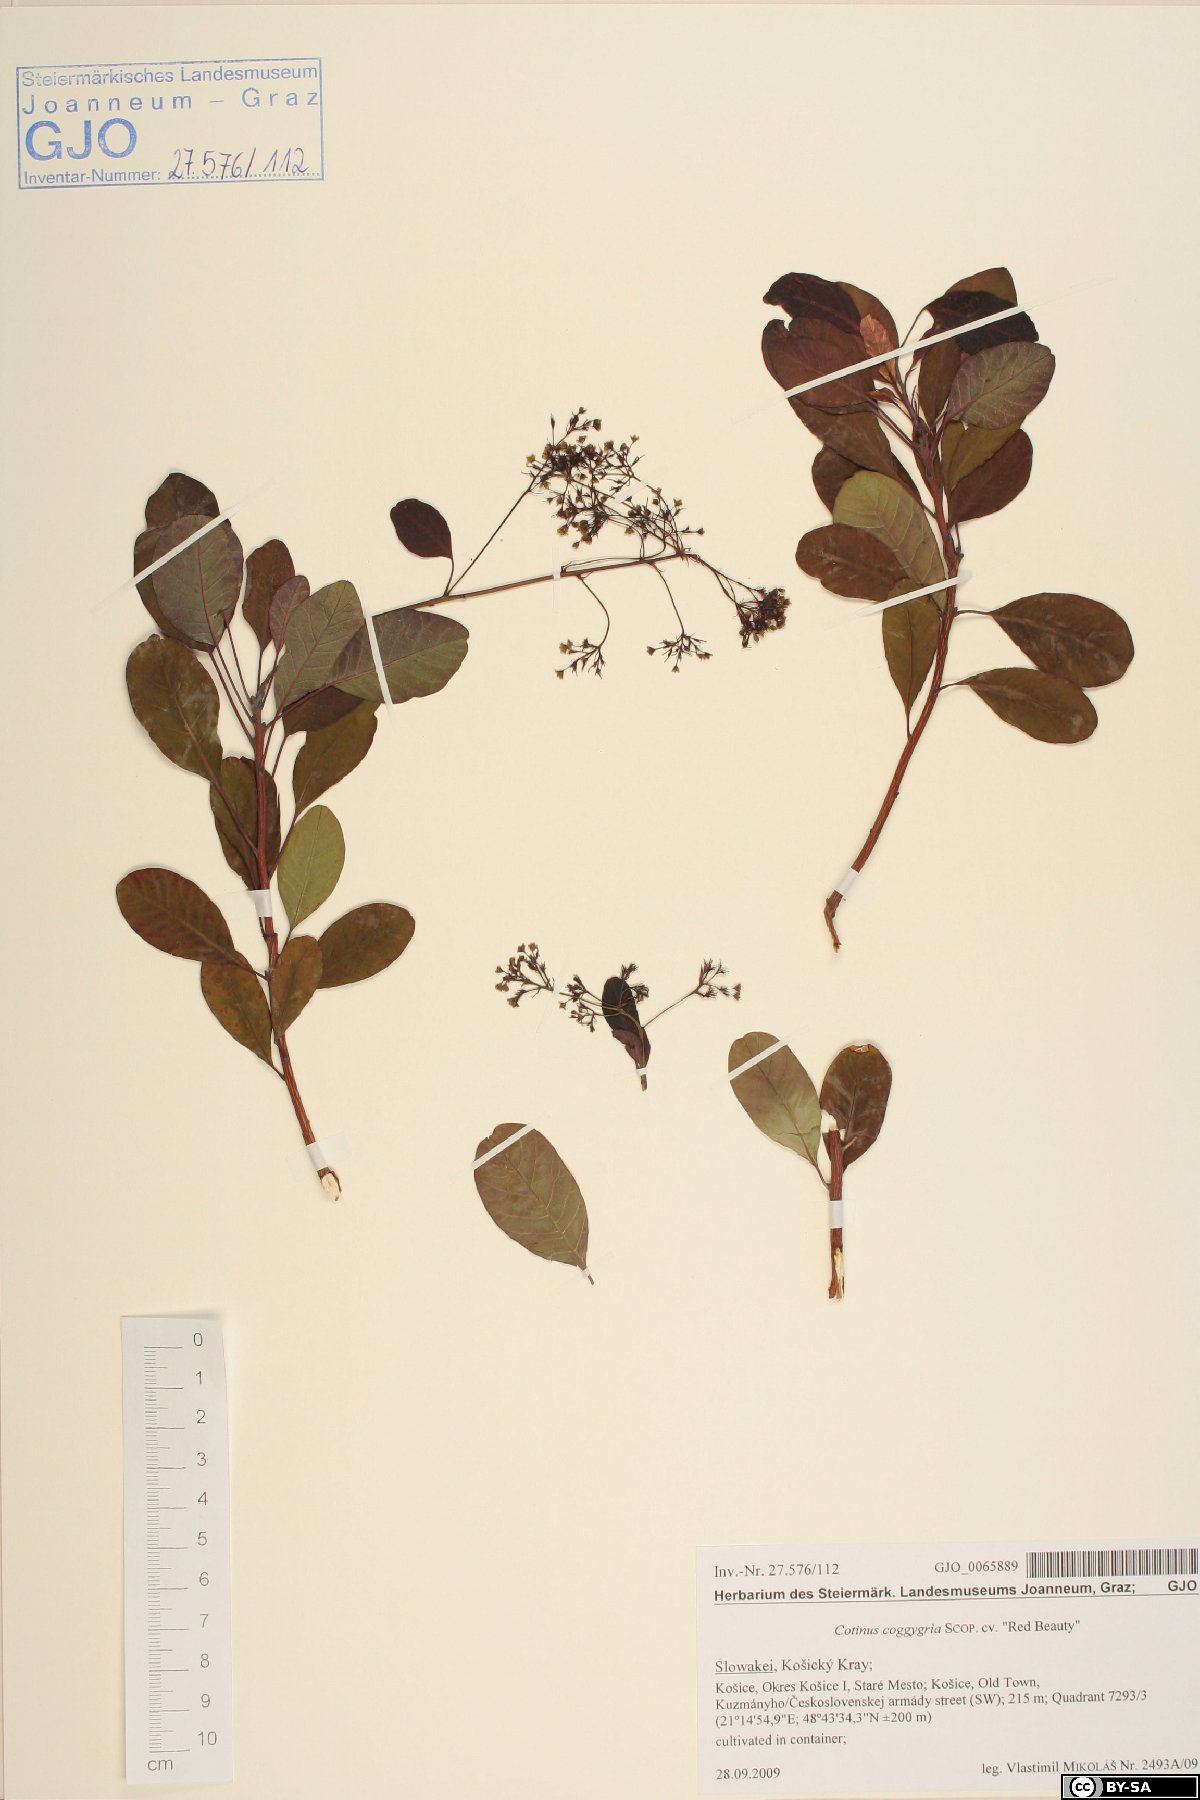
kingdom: Plantae
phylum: Tracheophyta
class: Magnoliopsida
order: Sapindales
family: Anacardiaceae
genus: Cotinus
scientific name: Cotinus coggygria
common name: Smoke-tree
